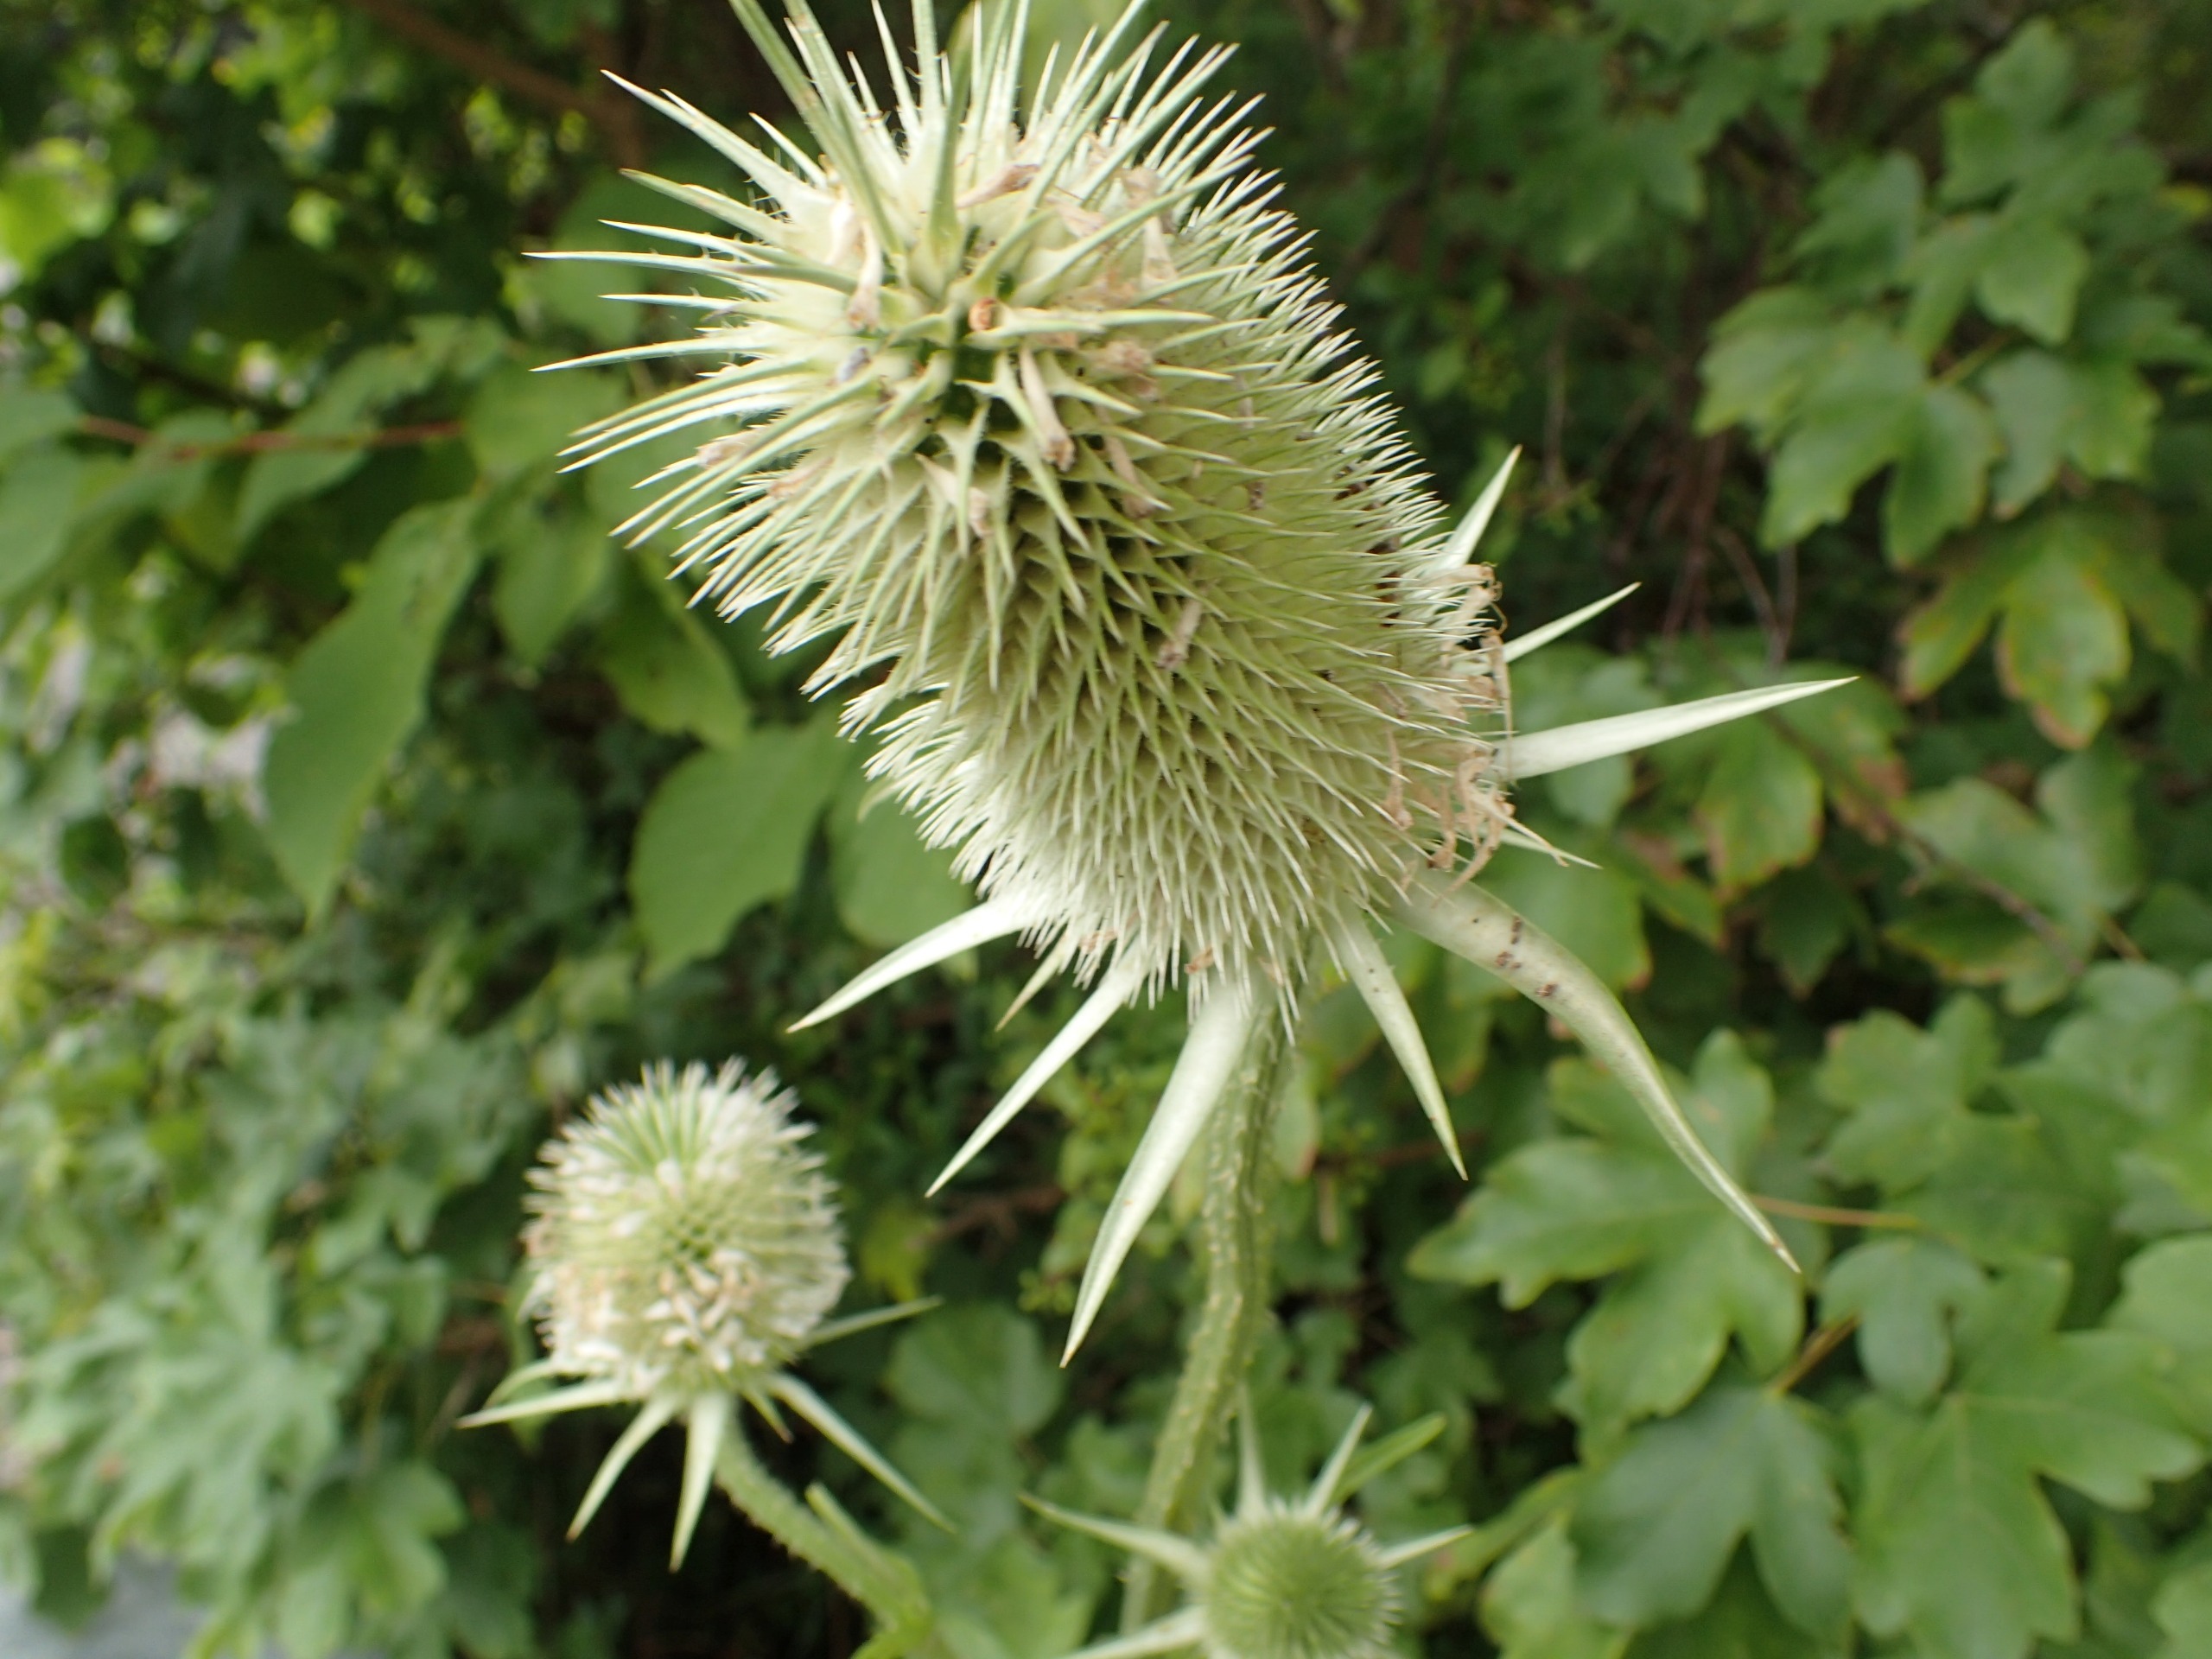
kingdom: Plantae
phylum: Tracheophyta
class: Magnoliopsida
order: Dipsacales
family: Caprifoliaceae
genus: Dipsacus
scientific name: Dipsacus laciniatus
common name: Fliget kartebolle
